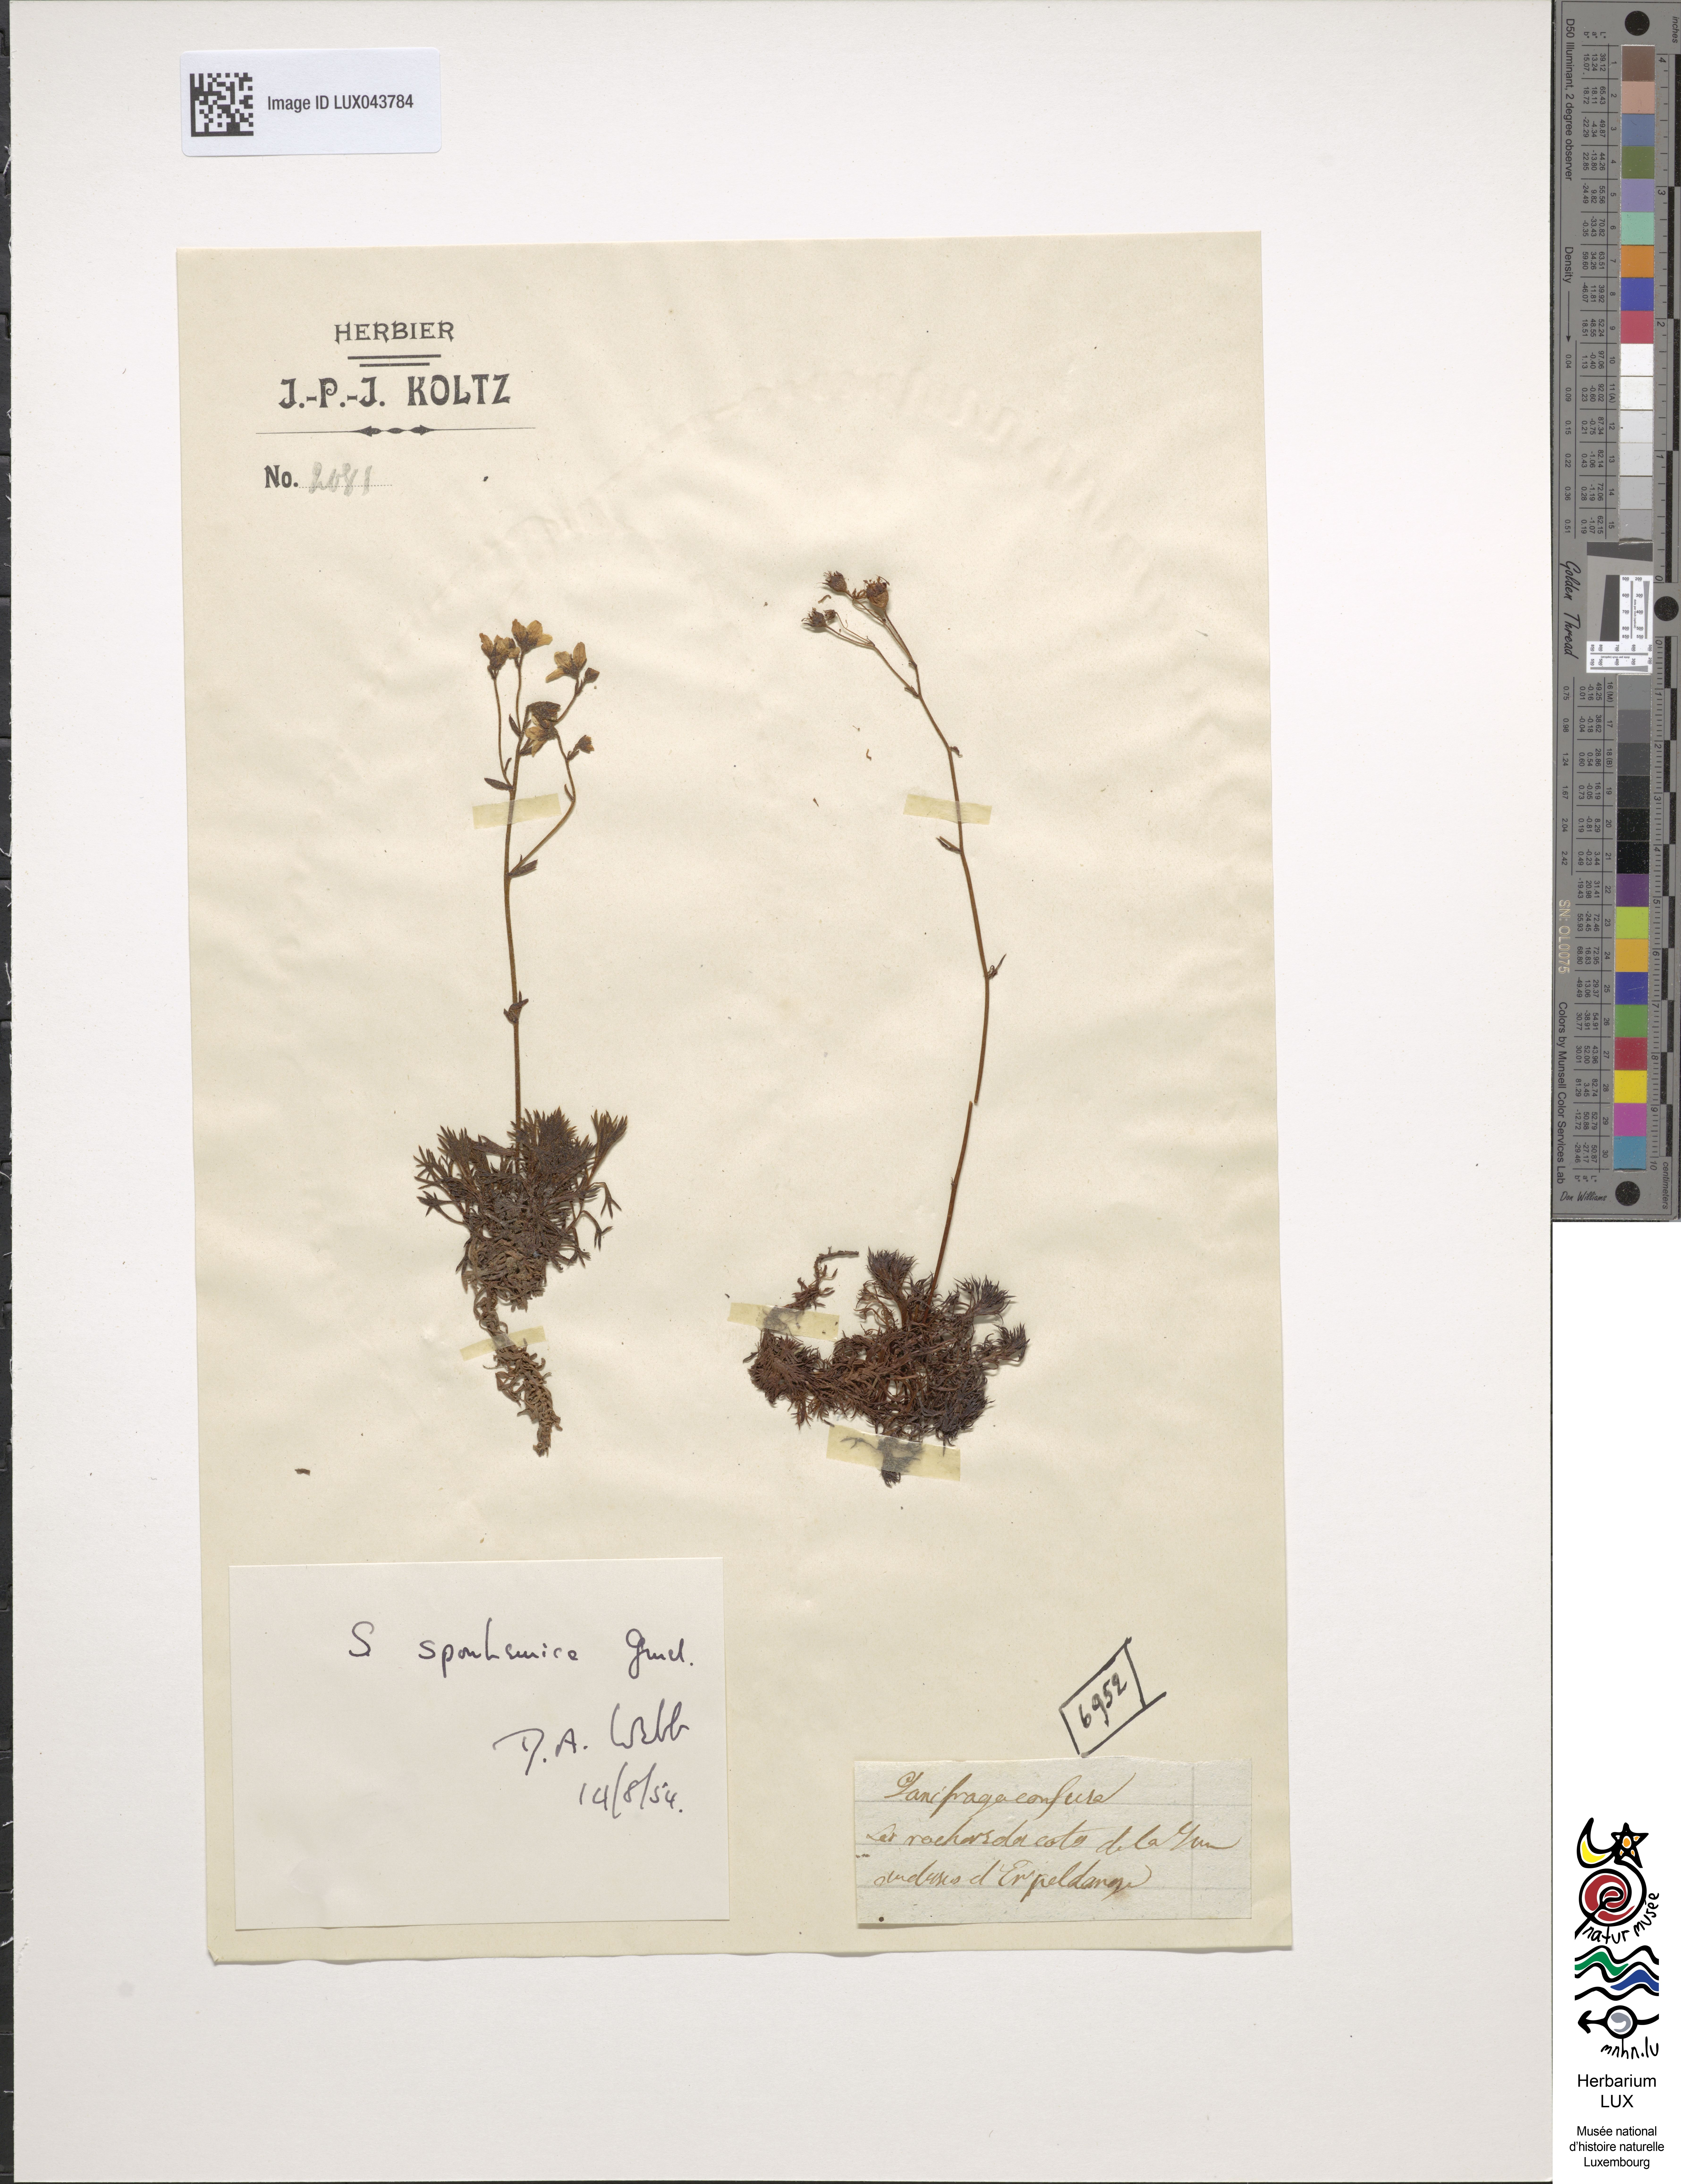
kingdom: Plantae
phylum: Tracheophyta
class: Magnoliopsida
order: Saxifragales
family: Saxifragaceae
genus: Saxifraga
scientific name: Saxifraga
